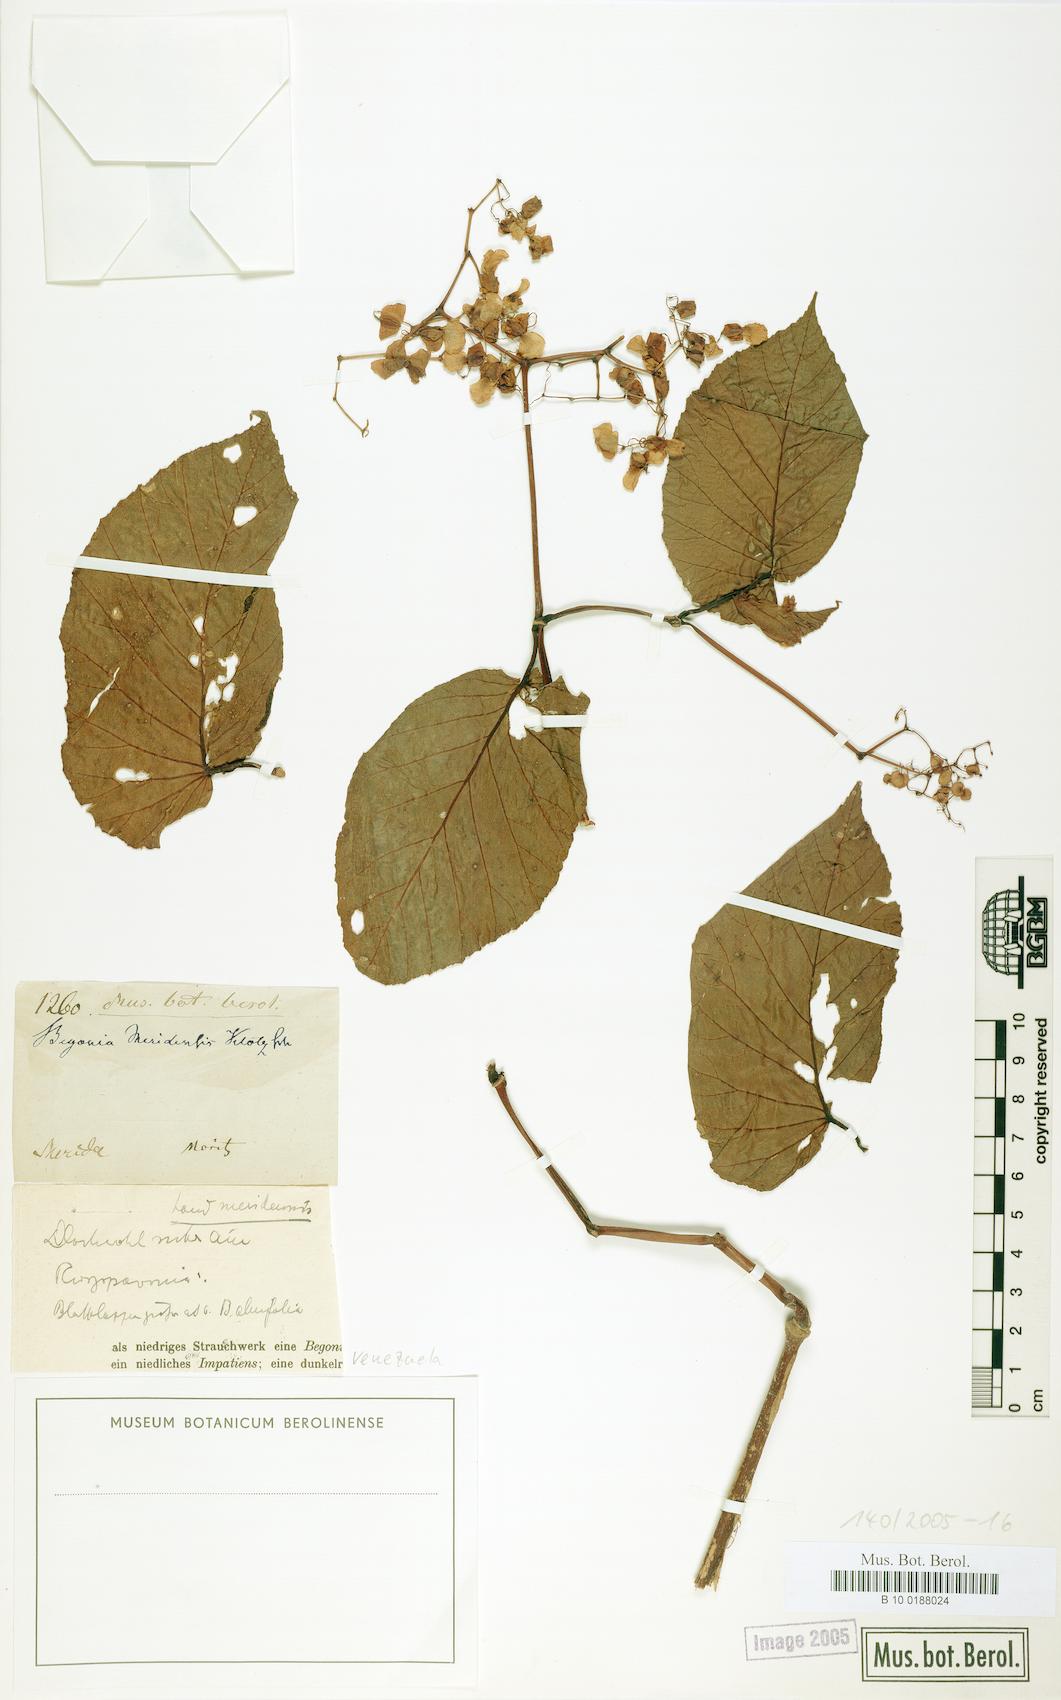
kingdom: Plantae
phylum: Tracheophyta
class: Magnoliopsida
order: Cucurbitales
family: Begoniaceae
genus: Begonia
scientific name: Begonia meridensis
